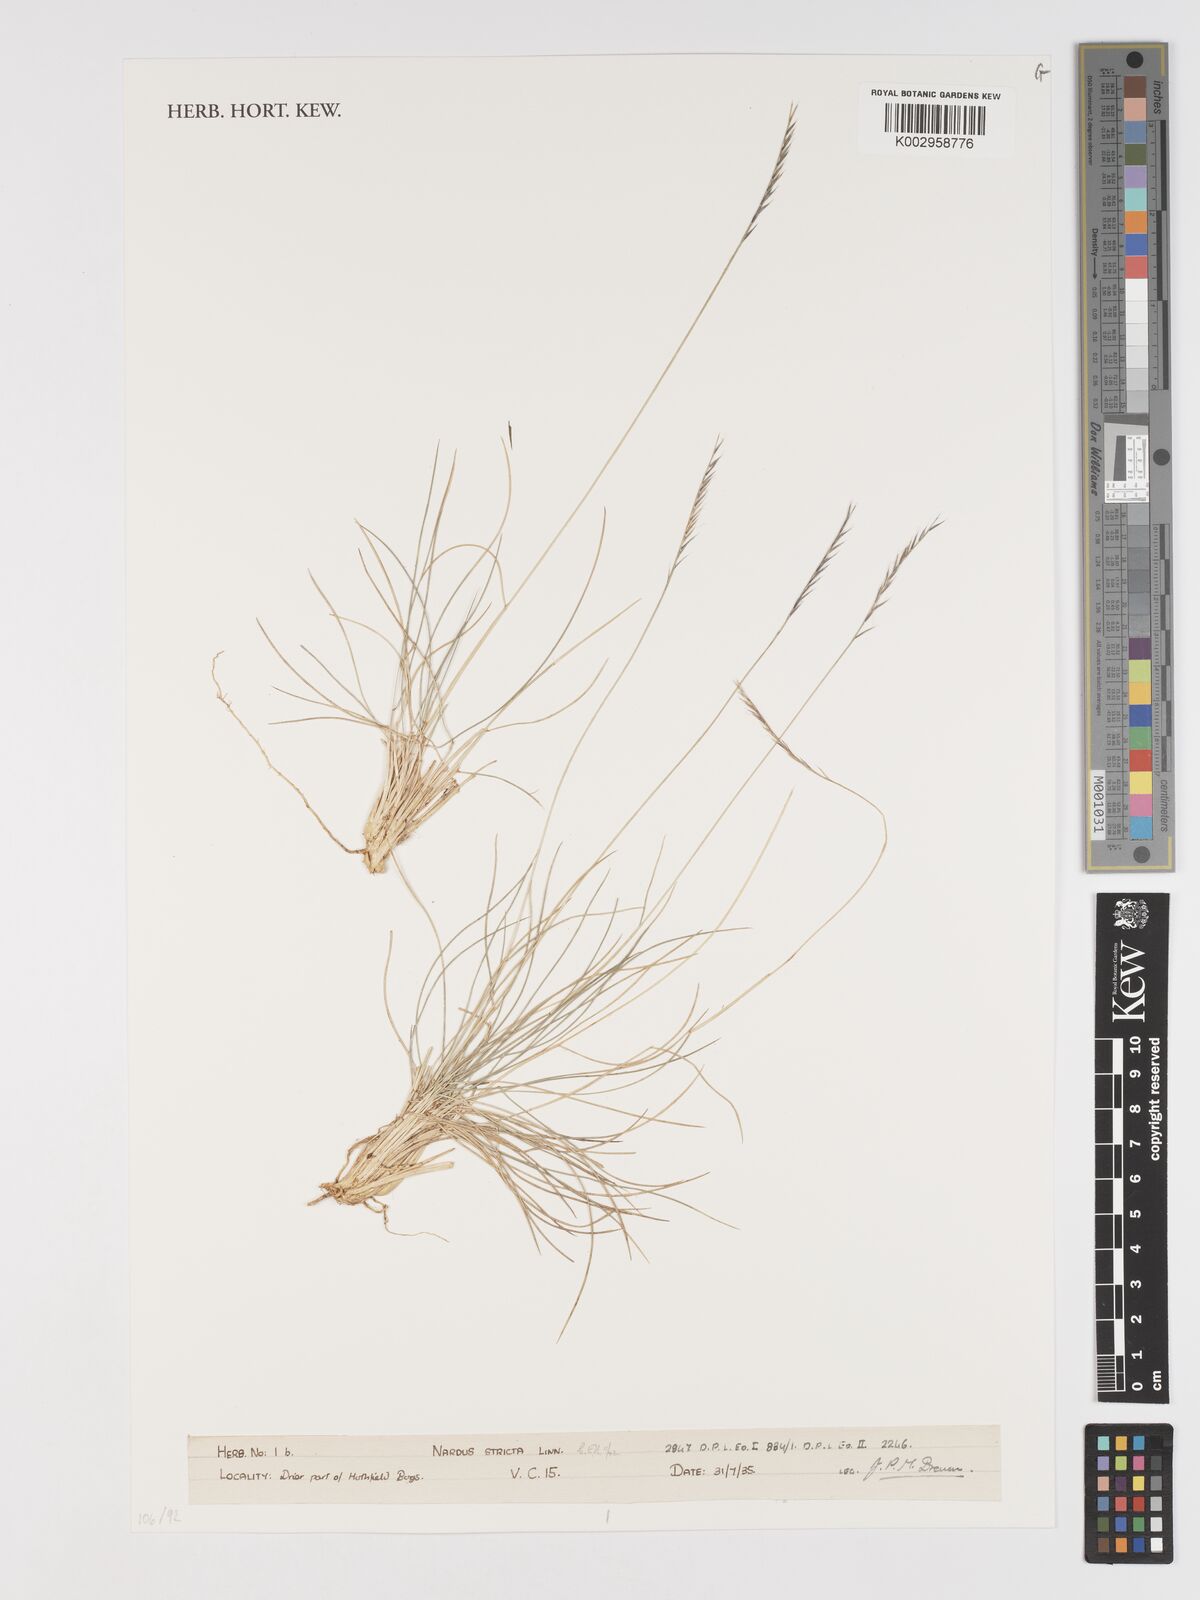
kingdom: Plantae
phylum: Tracheophyta
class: Liliopsida
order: Poales
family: Poaceae
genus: Nardus
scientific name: Nardus stricta
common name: Mat-grass
